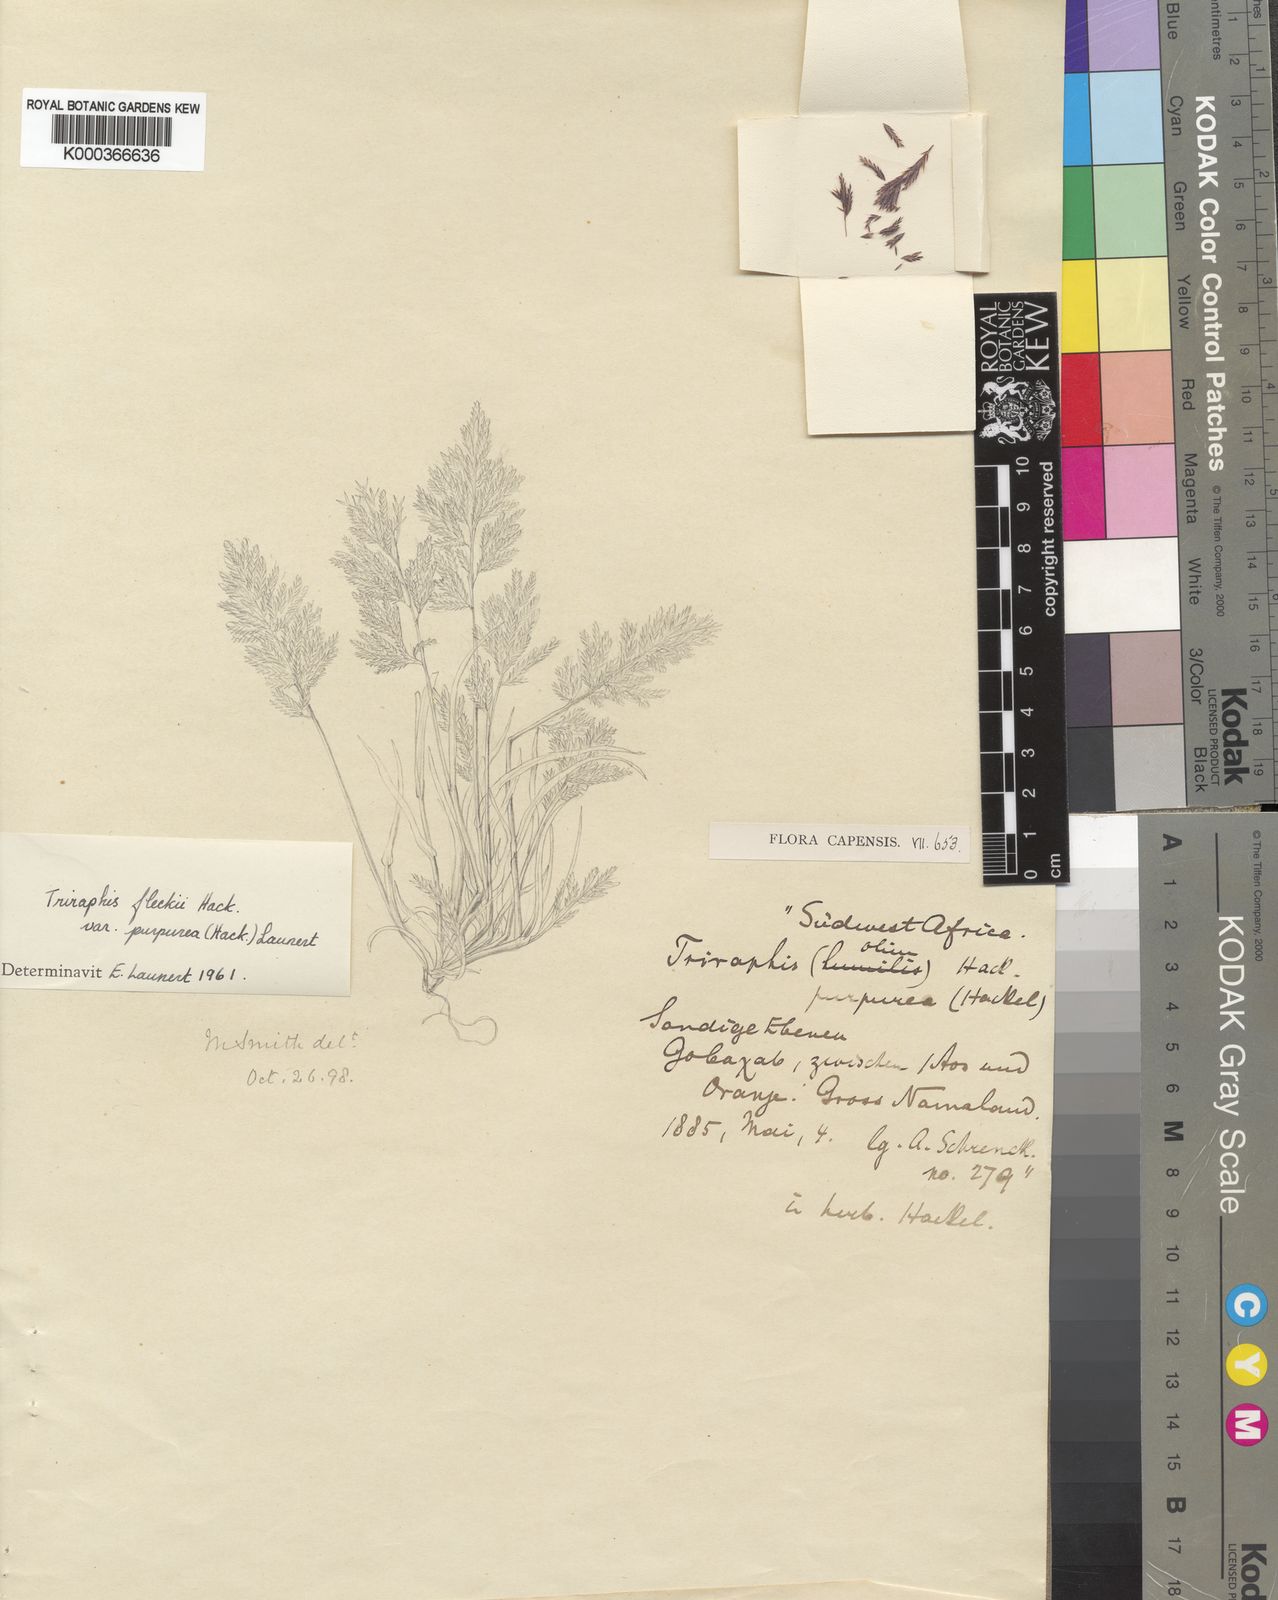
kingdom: Plantae
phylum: Tracheophyta
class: Liliopsida
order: Poales
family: Poaceae
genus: Triraphis
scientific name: Triraphis
